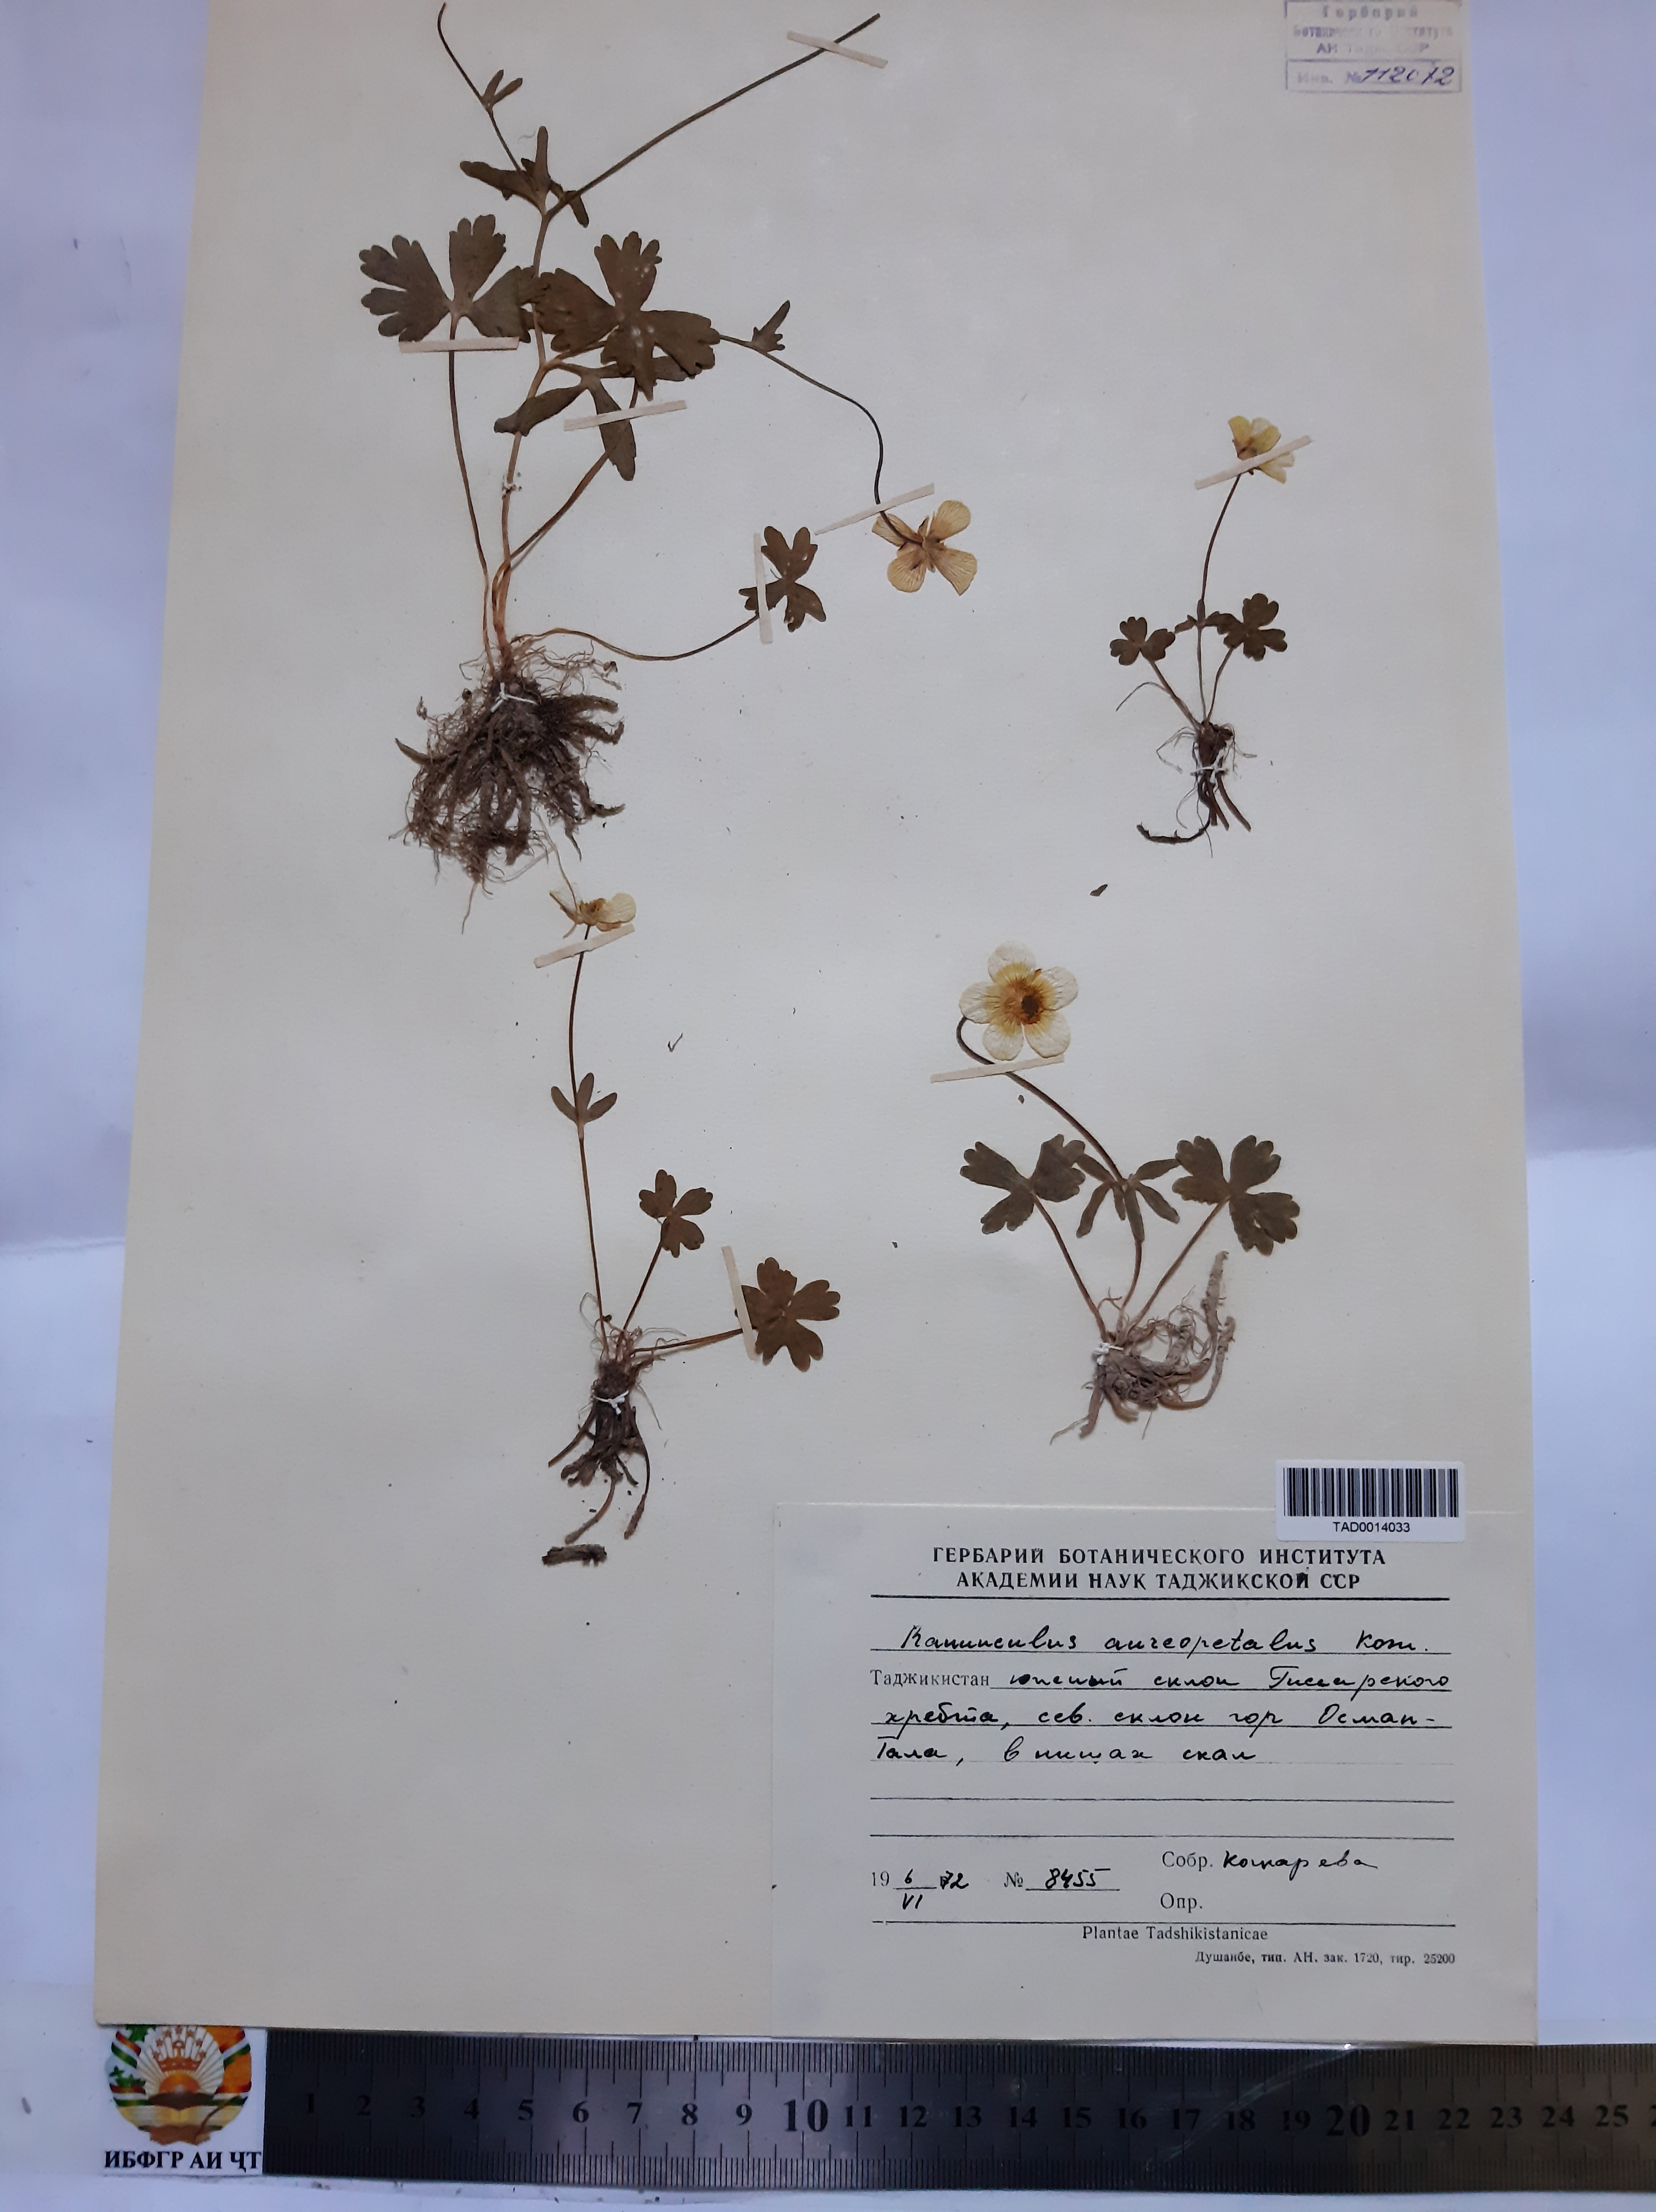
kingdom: Plantae
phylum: Tracheophyta
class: Magnoliopsida
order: Ranunculales
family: Ranunculaceae
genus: Ranunculus
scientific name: Ranunculus aureopetalus
